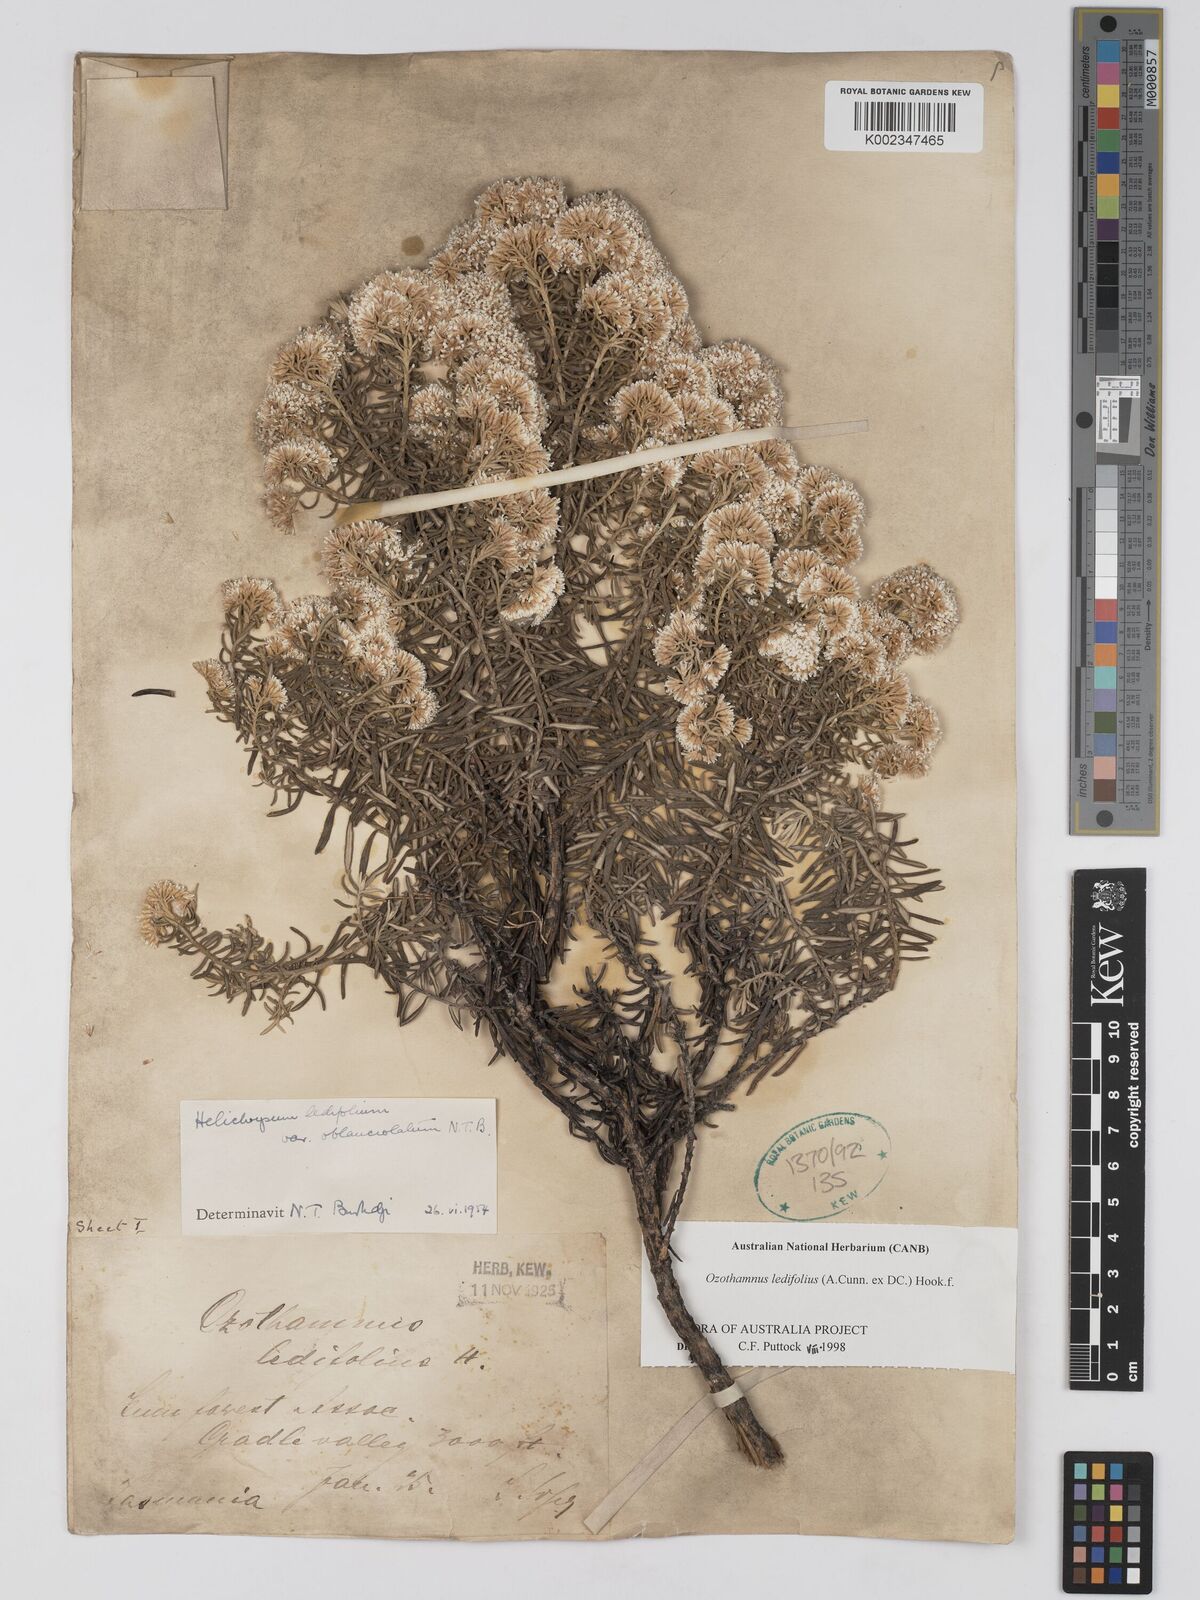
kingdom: Plantae
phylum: Tracheophyta
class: Magnoliopsida
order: Asterales
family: Asteraceae
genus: Ozothamnus
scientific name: Ozothamnus ledifolius
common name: Kerosene-weed
